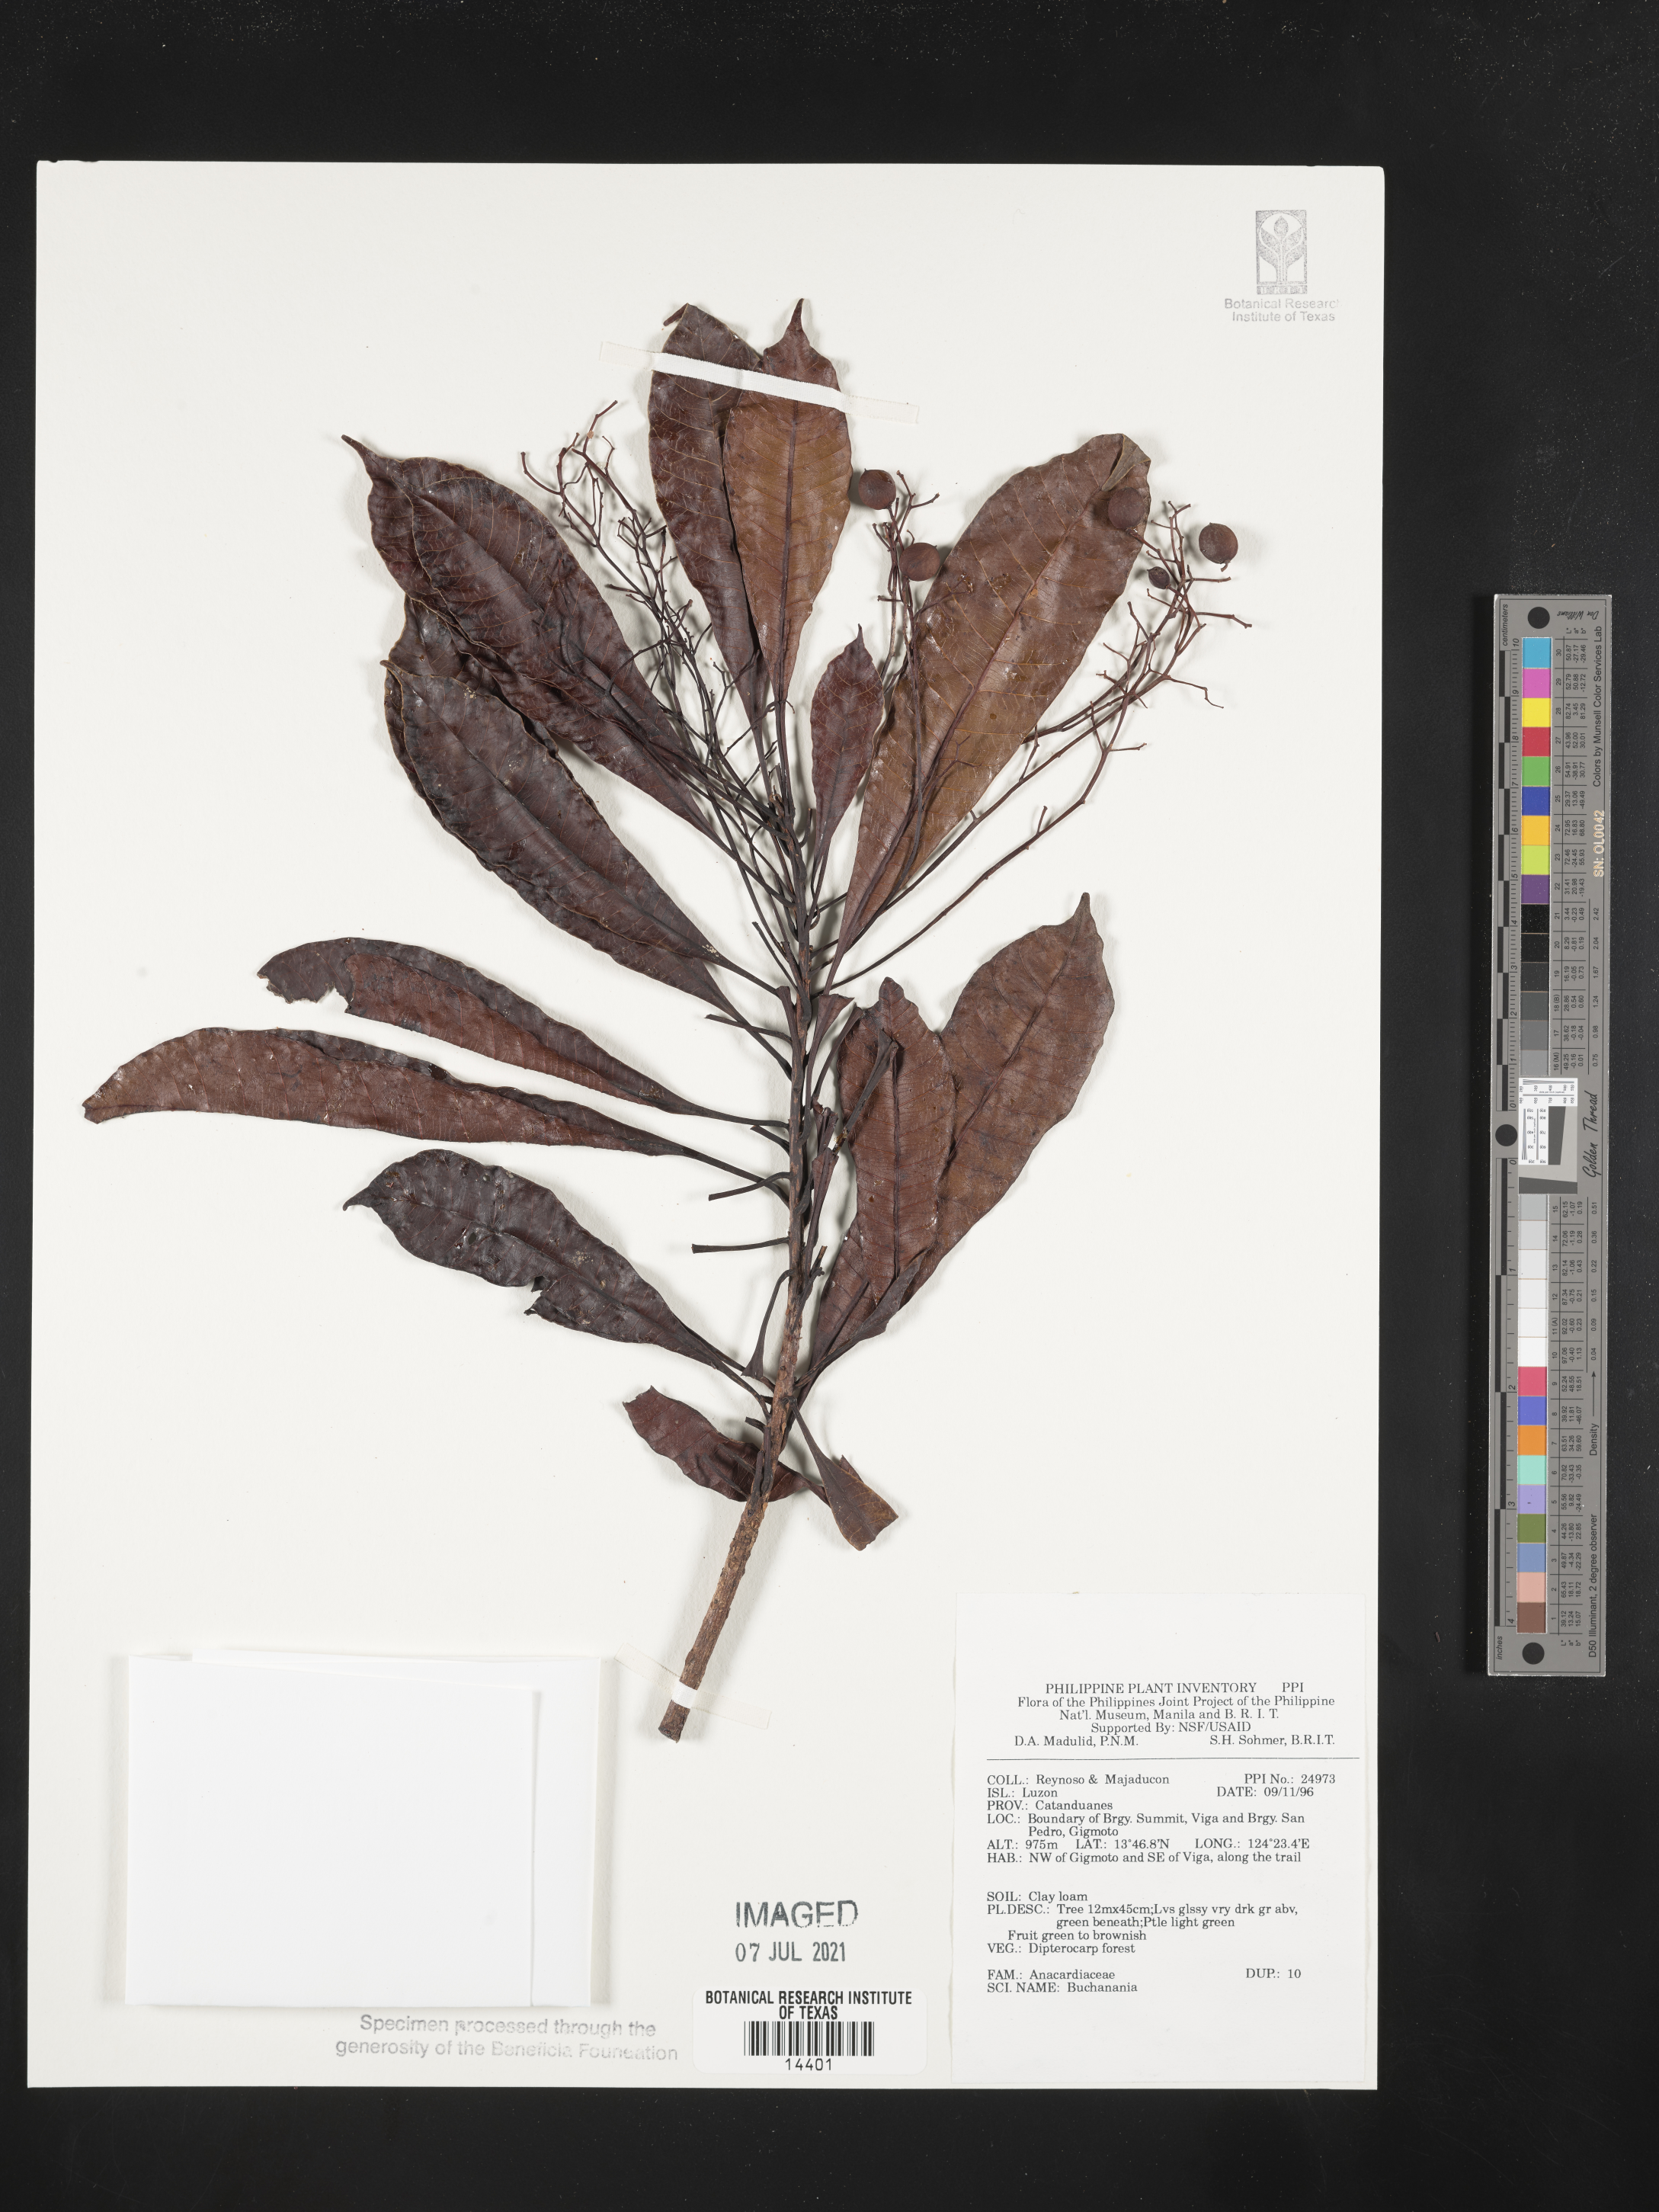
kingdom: Plantae
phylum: Tracheophyta
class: Magnoliopsida
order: Sapindales
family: Anacardiaceae
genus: Buchanania
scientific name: Buchanania
